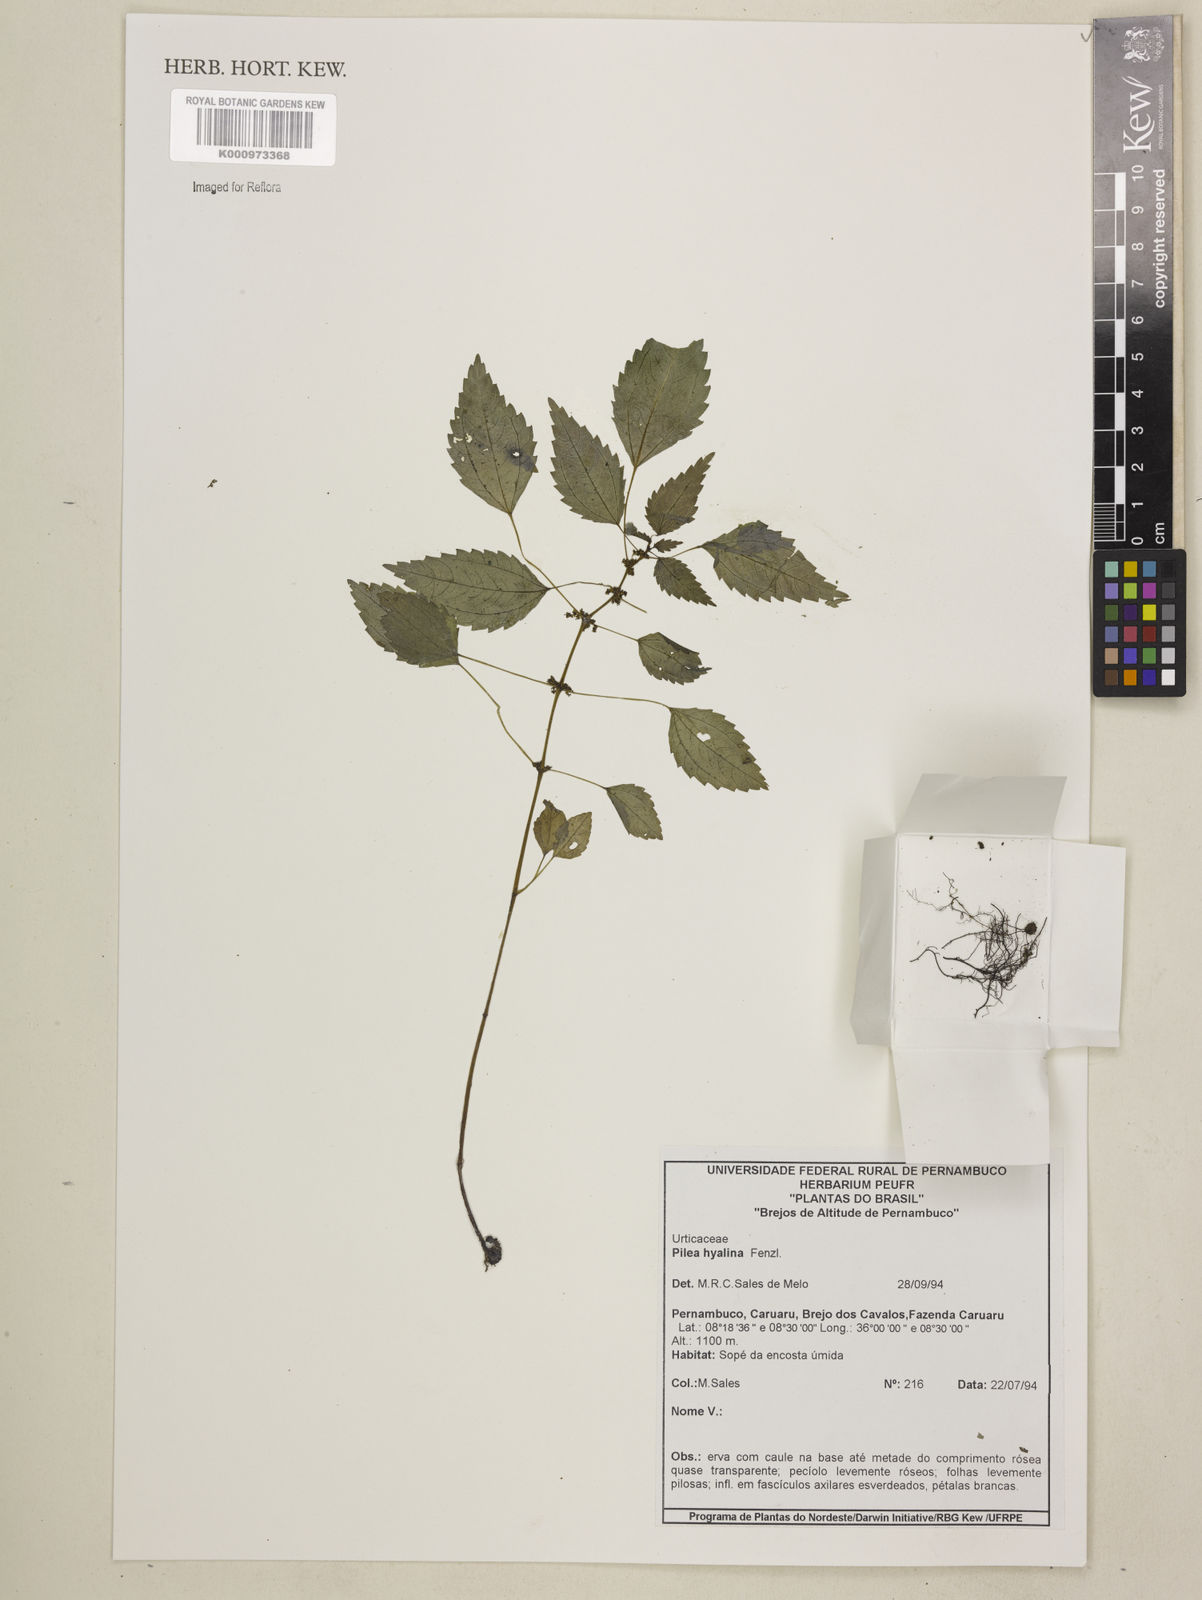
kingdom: Plantae
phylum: Tracheophyta
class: Magnoliopsida
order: Rosales
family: Urticaceae
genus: Pilea
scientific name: Pilea hyalina
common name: Virdrillo
